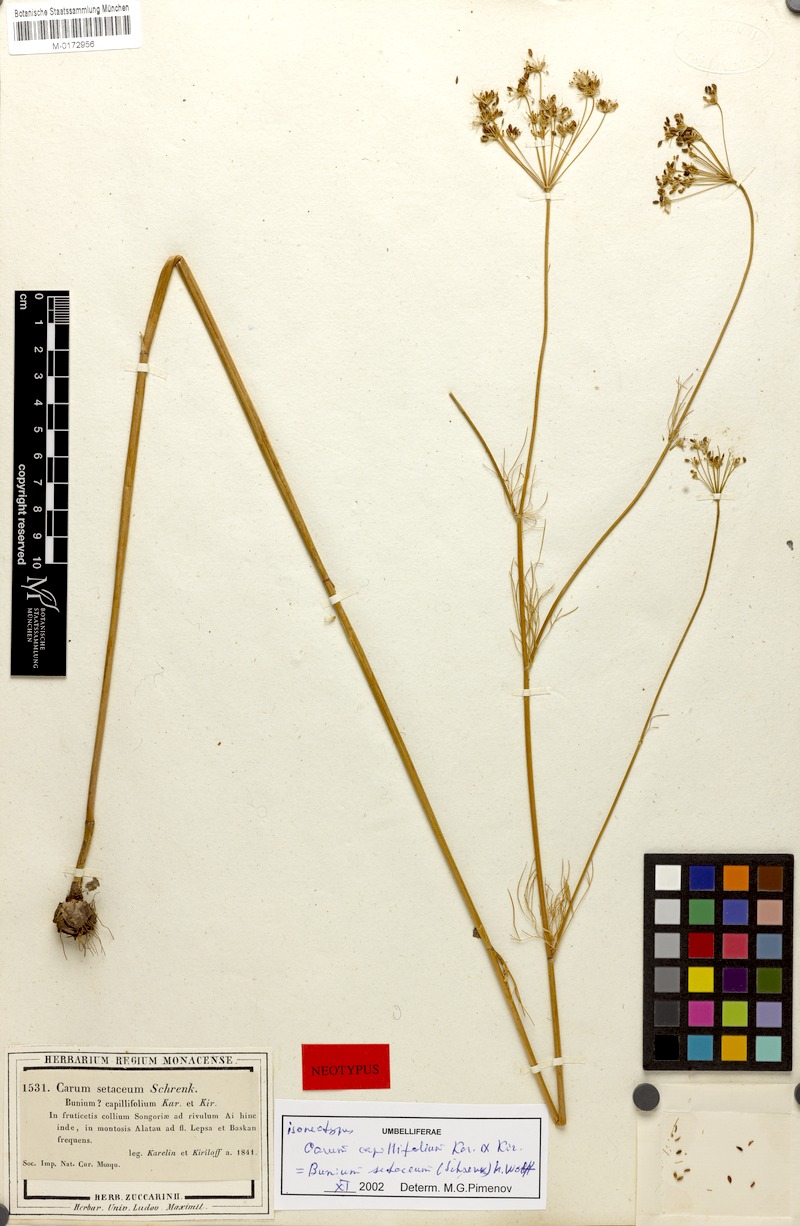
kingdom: Plantae
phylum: Tracheophyta
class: Magnoliopsida
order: Apiales
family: Apiaceae
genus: Elwendia
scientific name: Elwendia setacea
